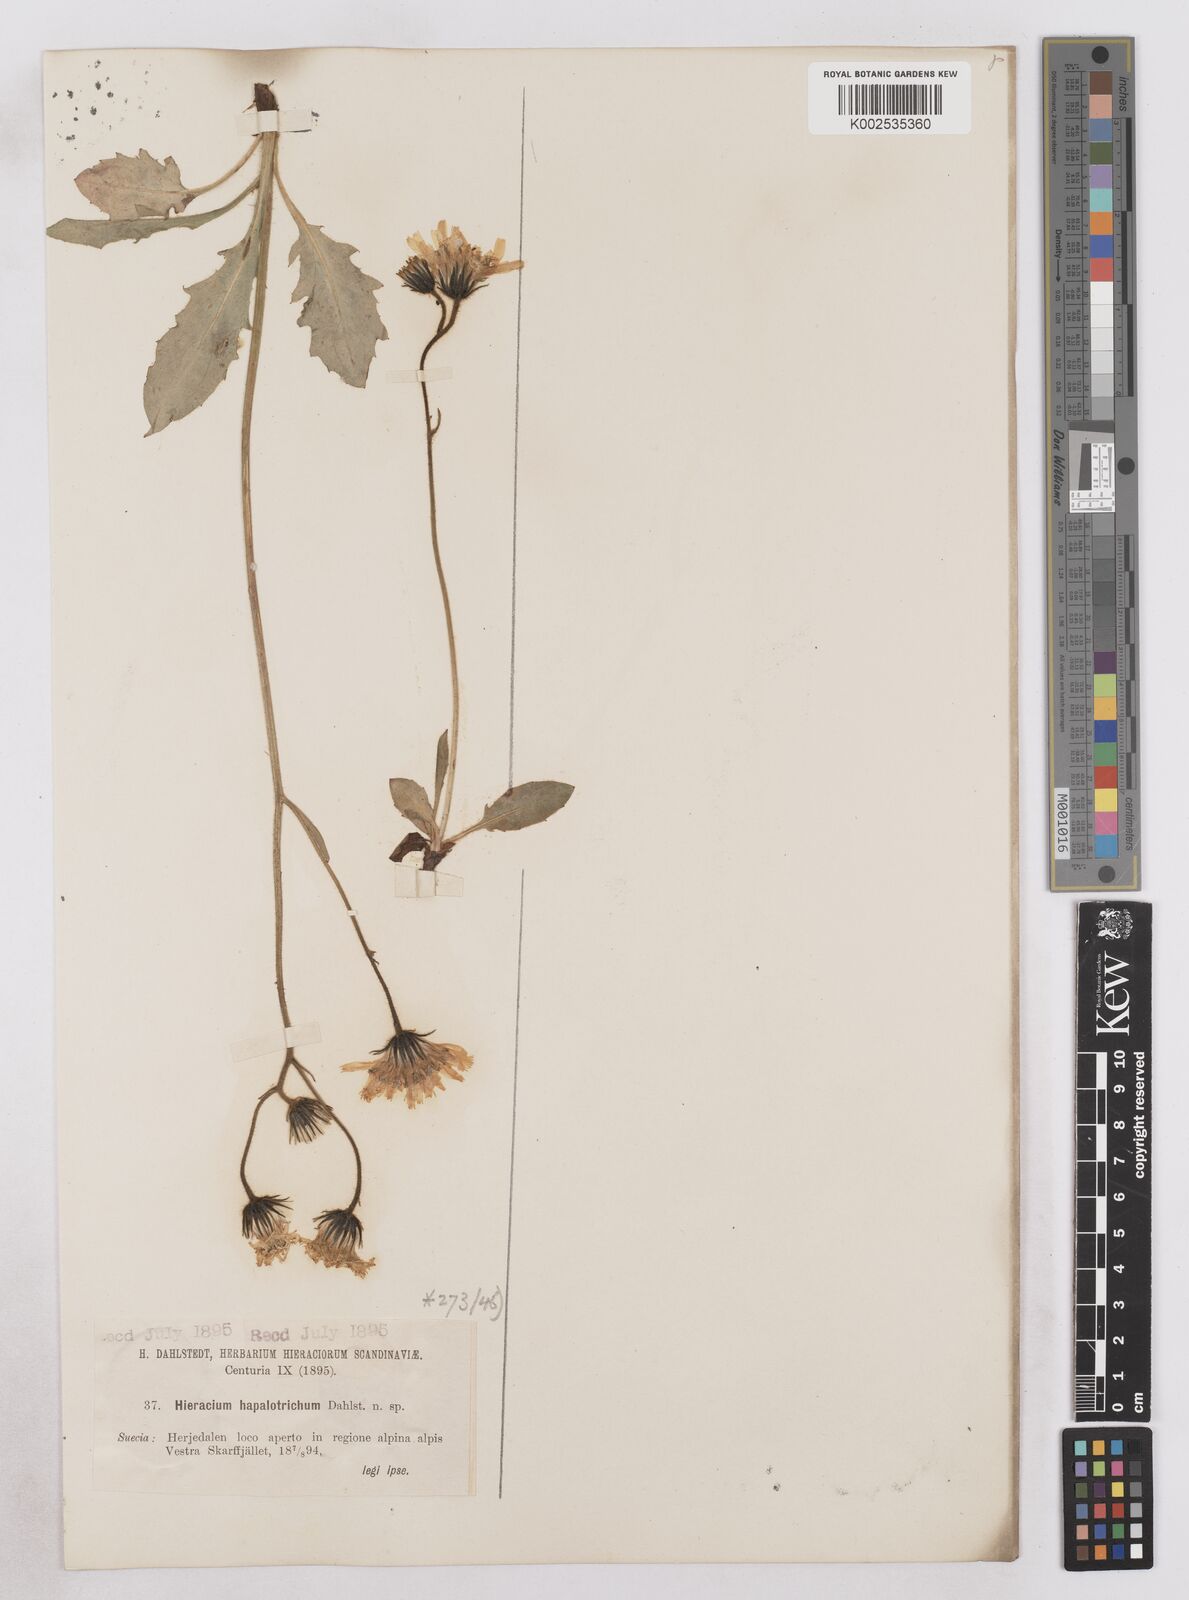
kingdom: Plantae
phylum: Tracheophyta
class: Magnoliopsida
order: Asterales
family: Asteraceae
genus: Hieracium
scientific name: Hieracium conspurcans
